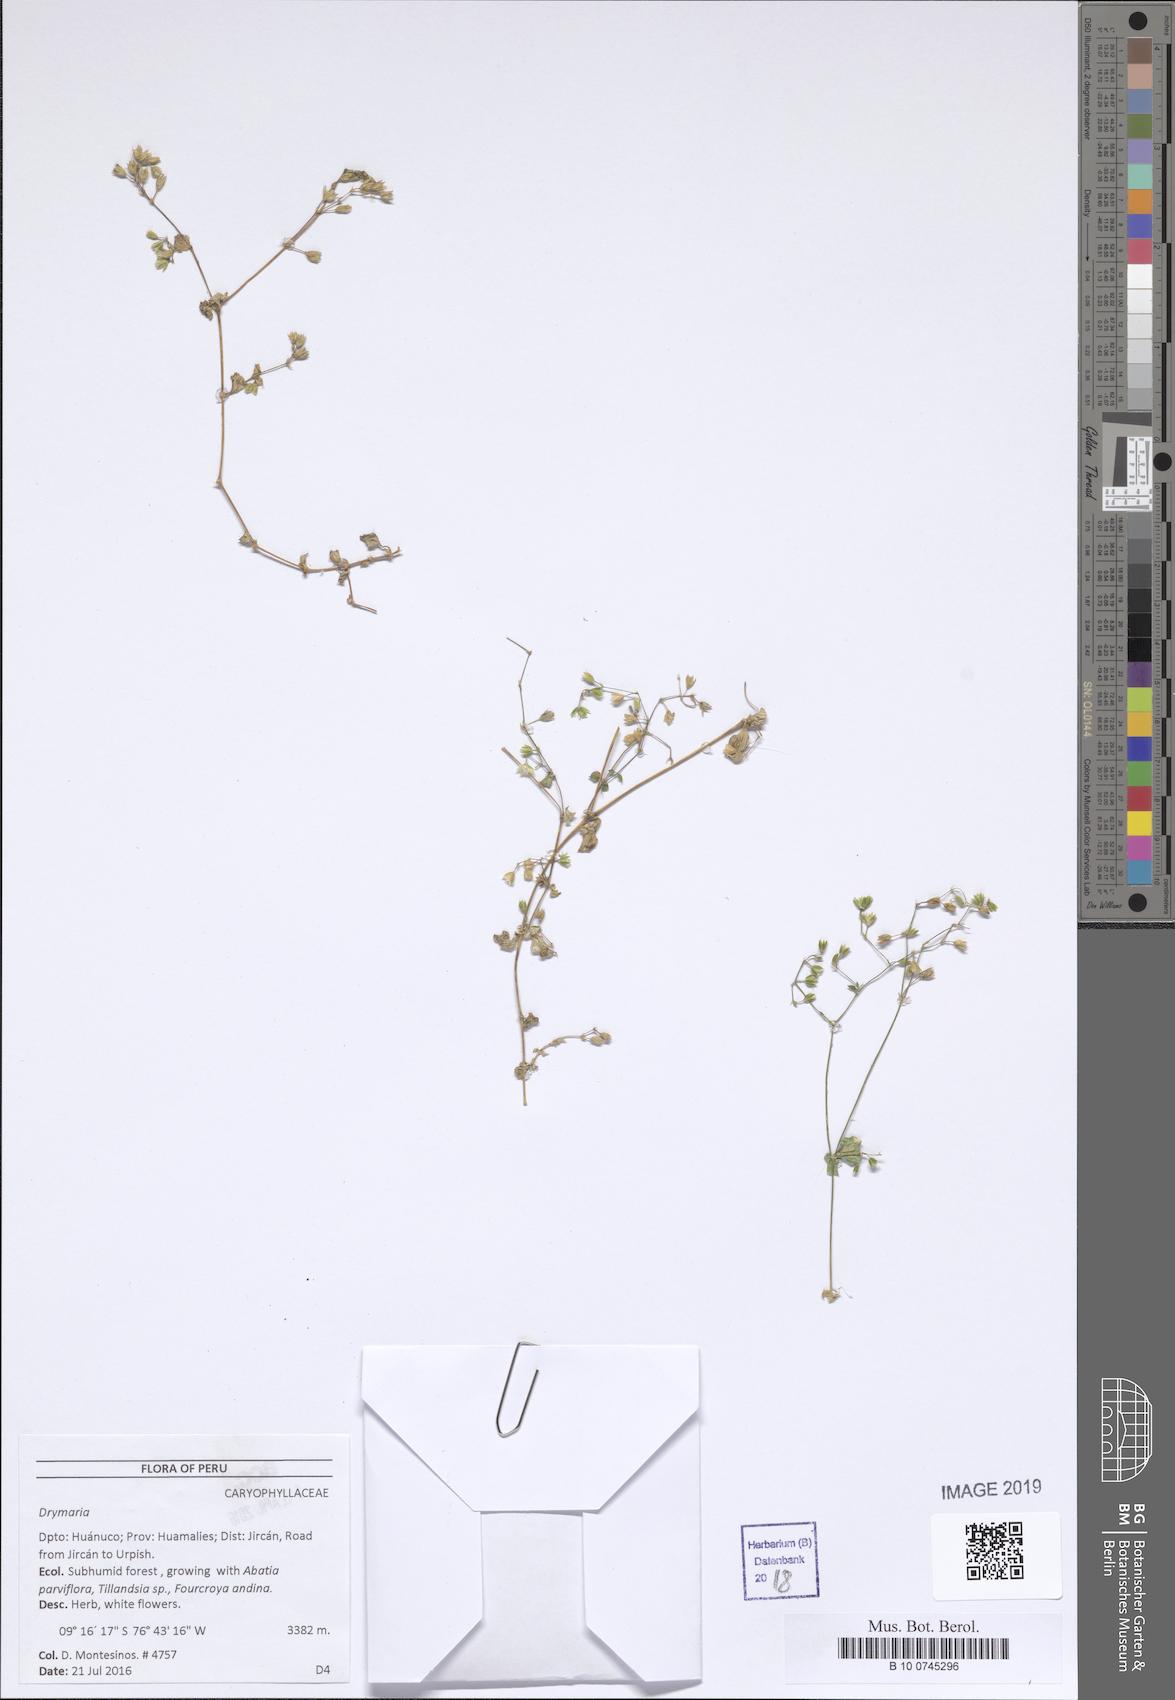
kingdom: Plantae
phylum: Tracheophyta
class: Magnoliopsida
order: Caryophyllales
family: Caryophyllaceae
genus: Drymaria
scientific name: Drymaria
